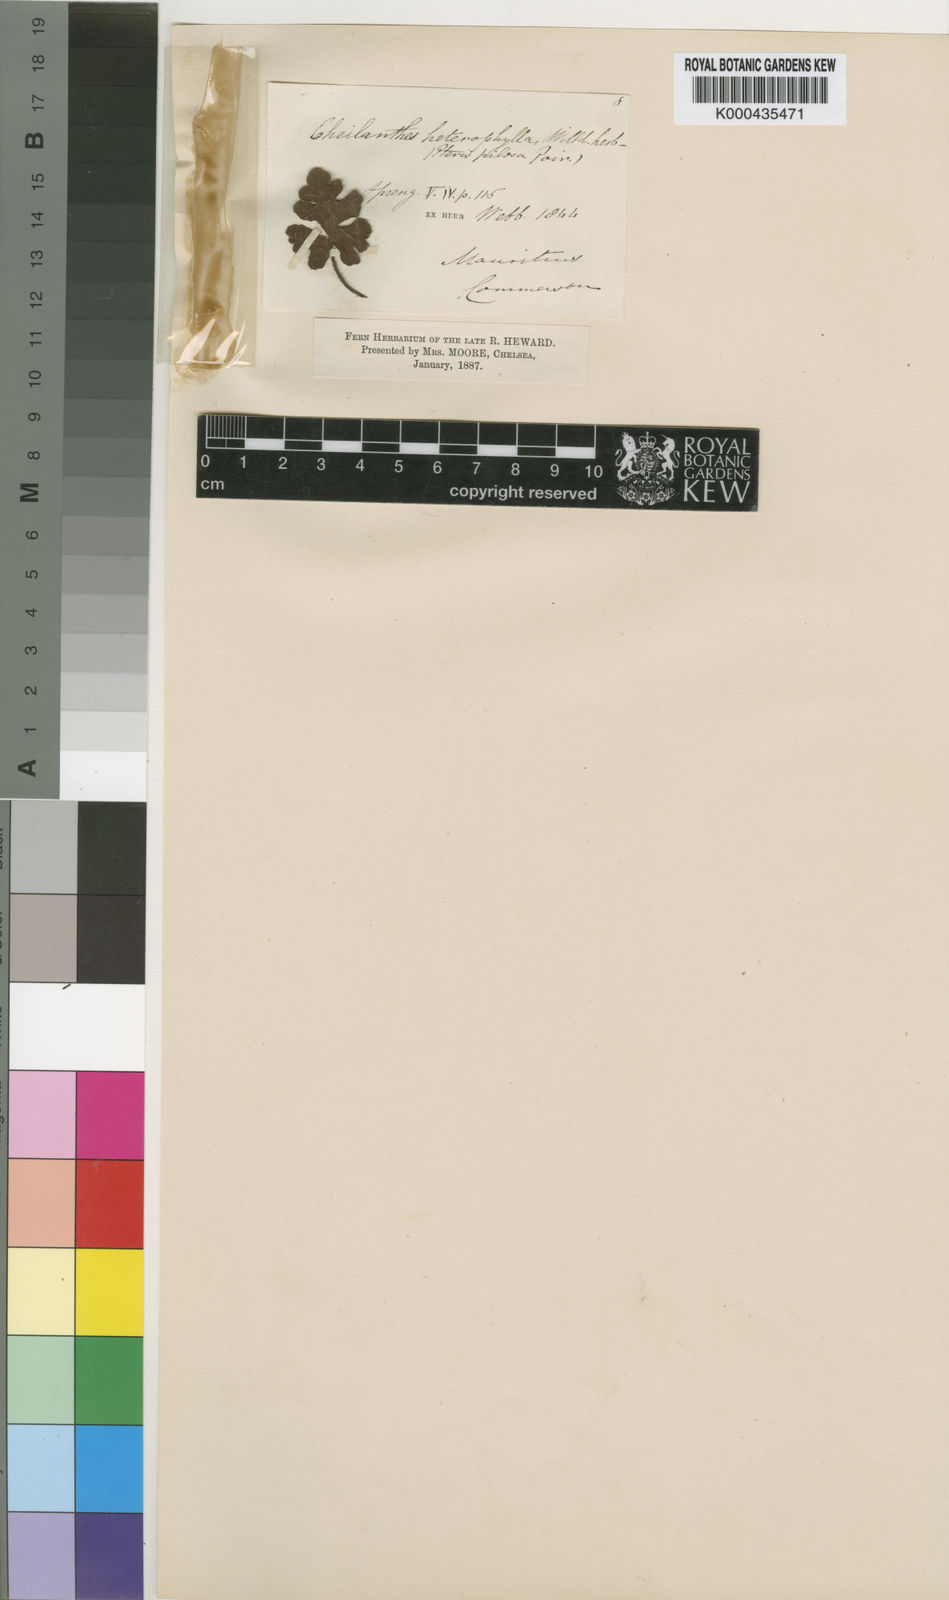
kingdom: Plantae
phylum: Tracheophyta
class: Polypodiopsida
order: Polypodiales
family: Pteridaceae
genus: Cheilanthes
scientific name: Cheilanthes
